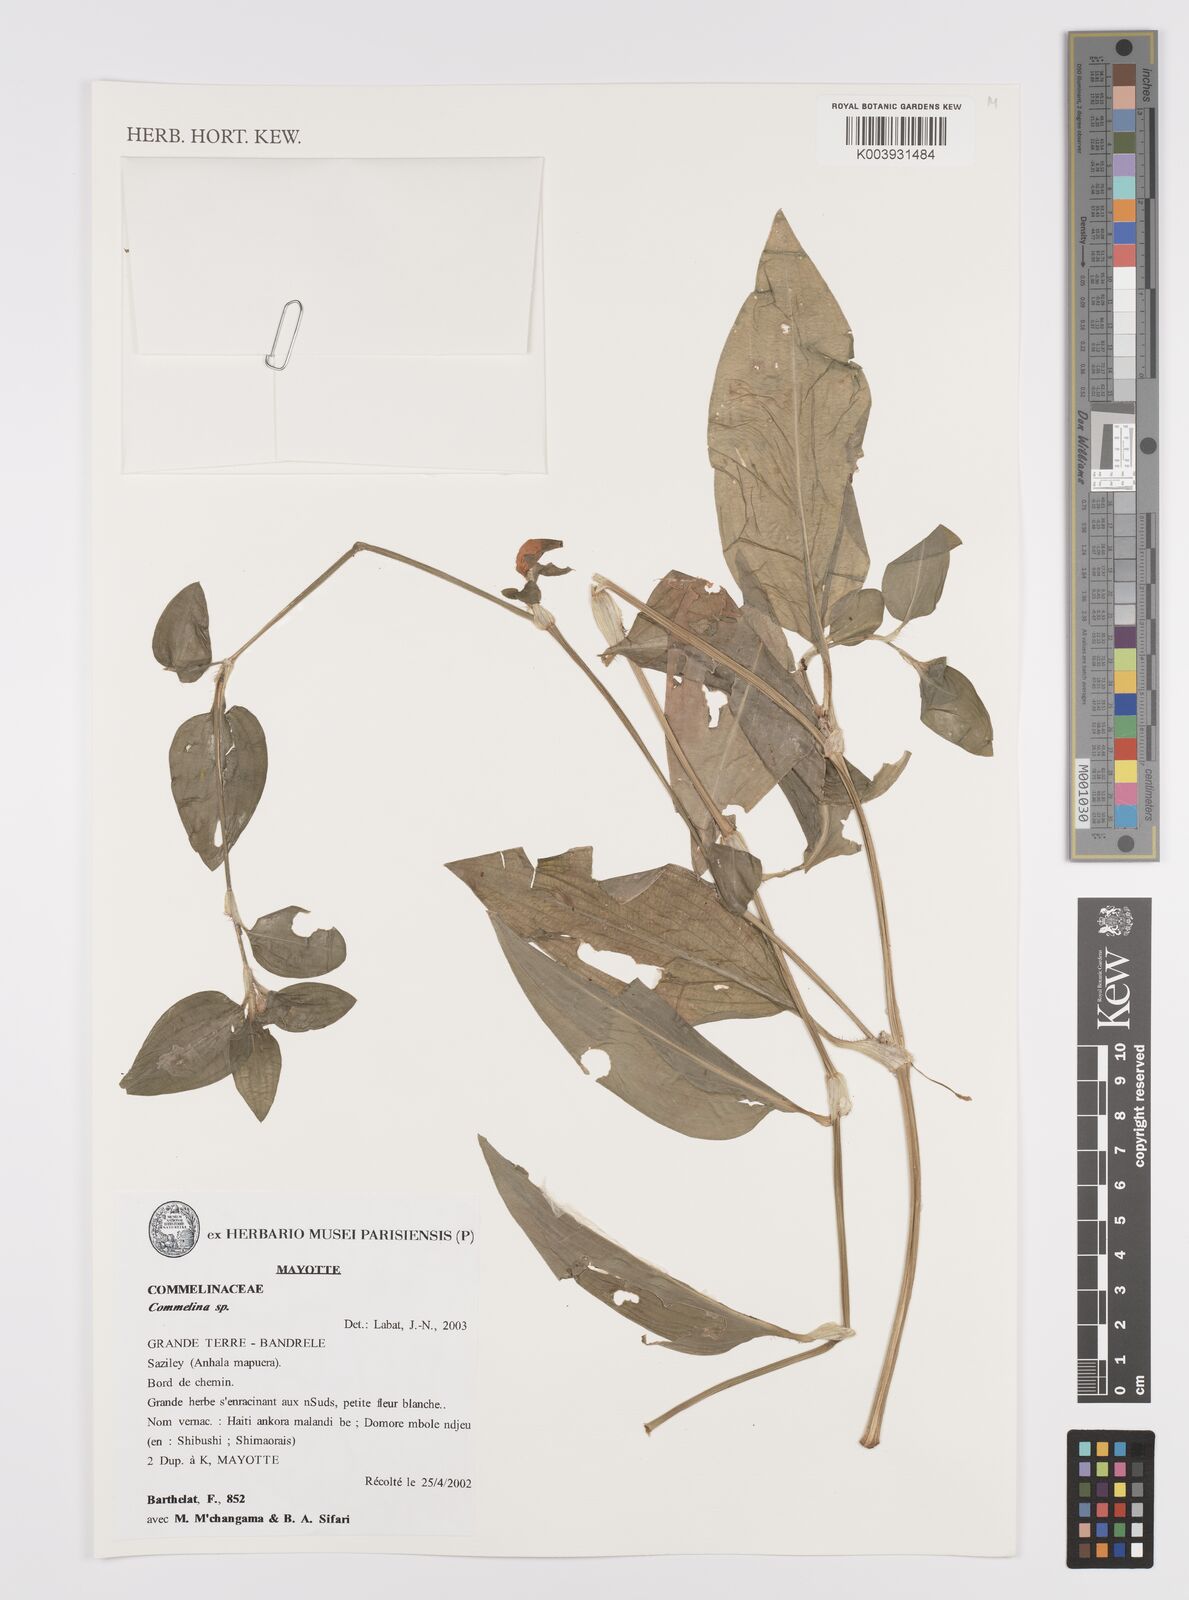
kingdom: Plantae
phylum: Tracheophyta
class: Liliopsida
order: Commelinales
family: Commelinaceae
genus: Commelina
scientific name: Commelina
